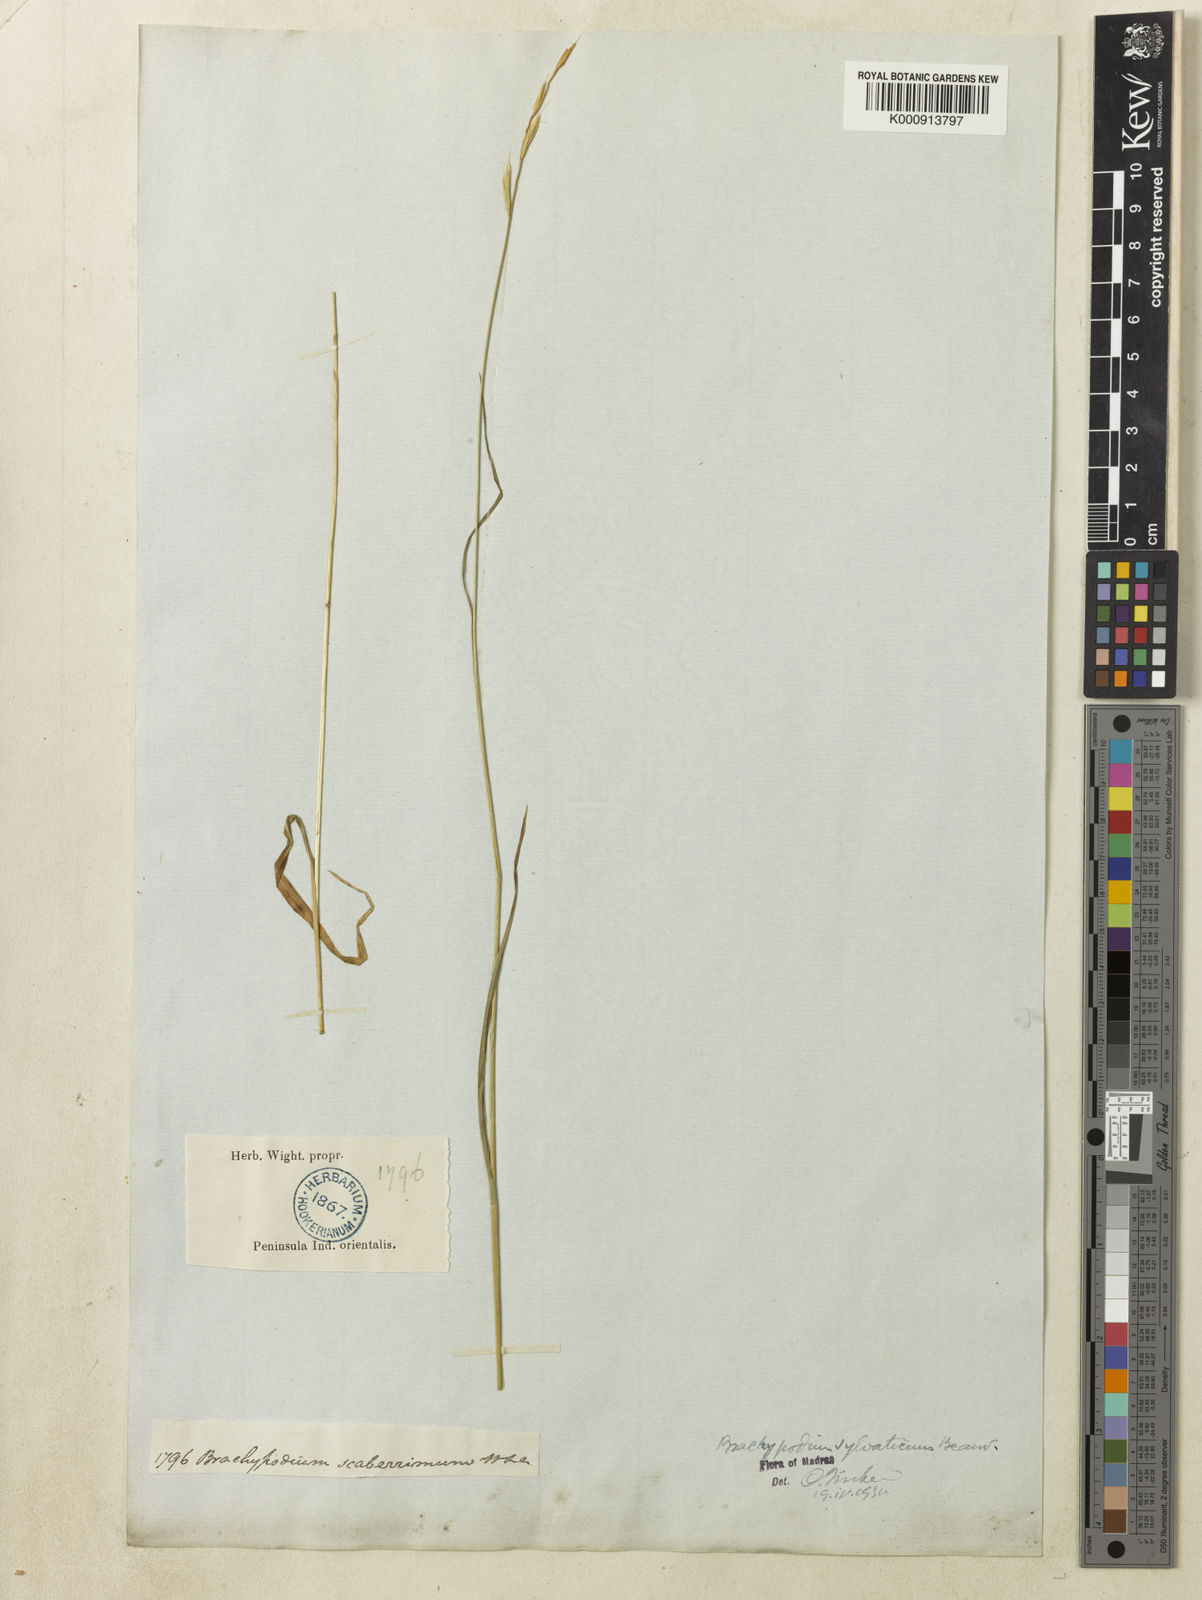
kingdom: Plantae
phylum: Tracheophyta
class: Liliopsida
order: Poales
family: Poaceae
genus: Brachypodium
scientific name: Brachypodium sylvaticum
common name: False-brome
